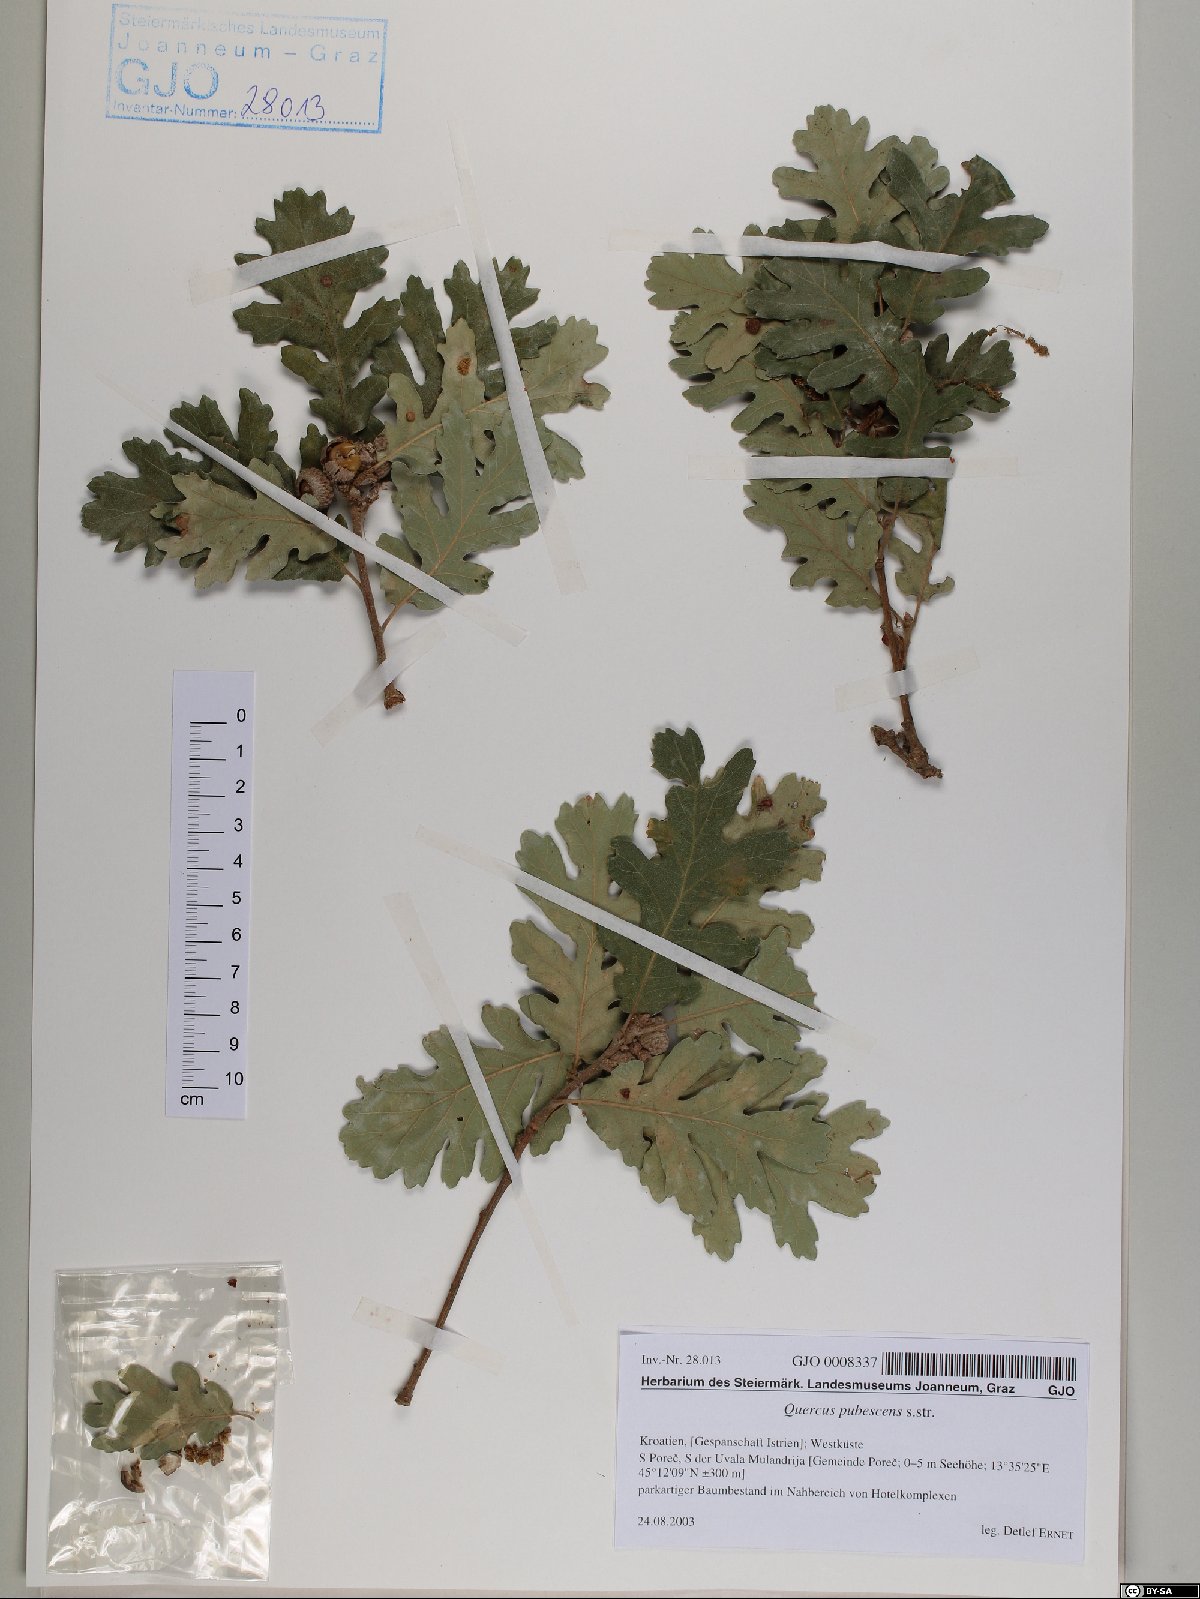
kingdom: Plantae
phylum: Tracheophyta
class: Magnoliopsida
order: Fagales
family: Fagaceae
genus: Quercus
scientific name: Quercus pubescens
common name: Downy oak
